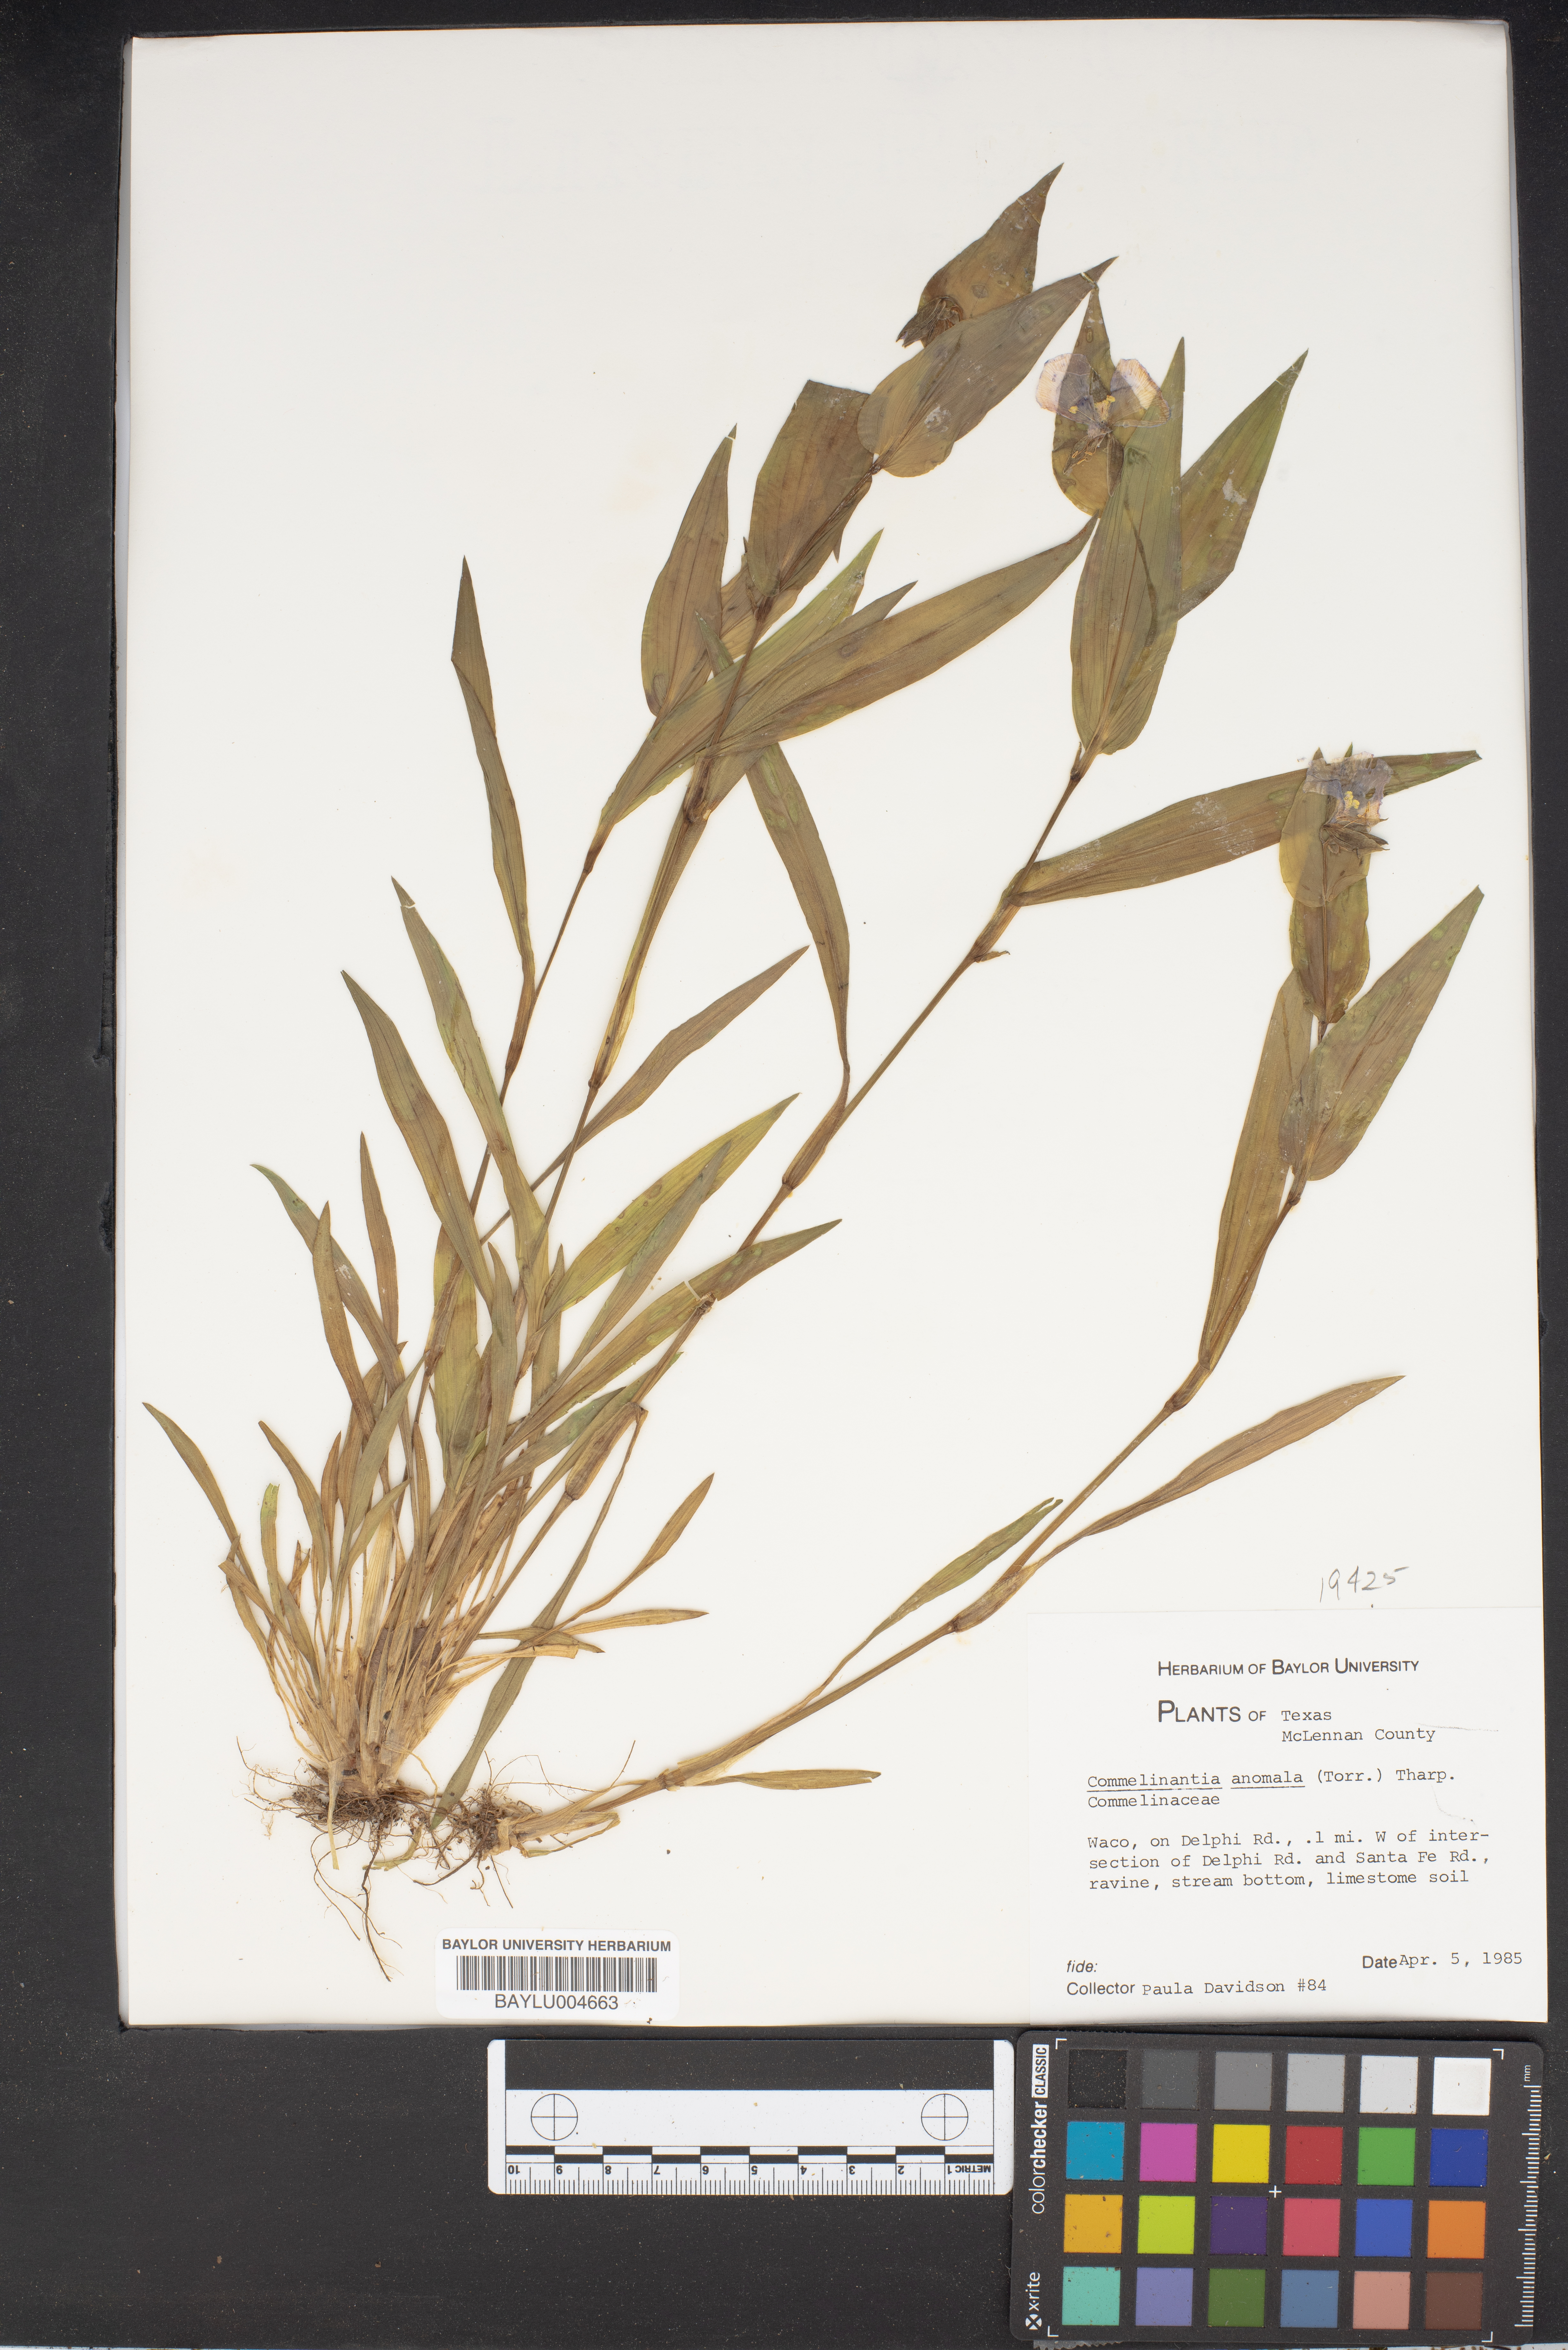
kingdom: Plantae
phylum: Tracheophyta
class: Liliopsida
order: Commelinales
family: Commelinaceae
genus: Tinantia
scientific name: Tinantia anomala
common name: False dayflower
